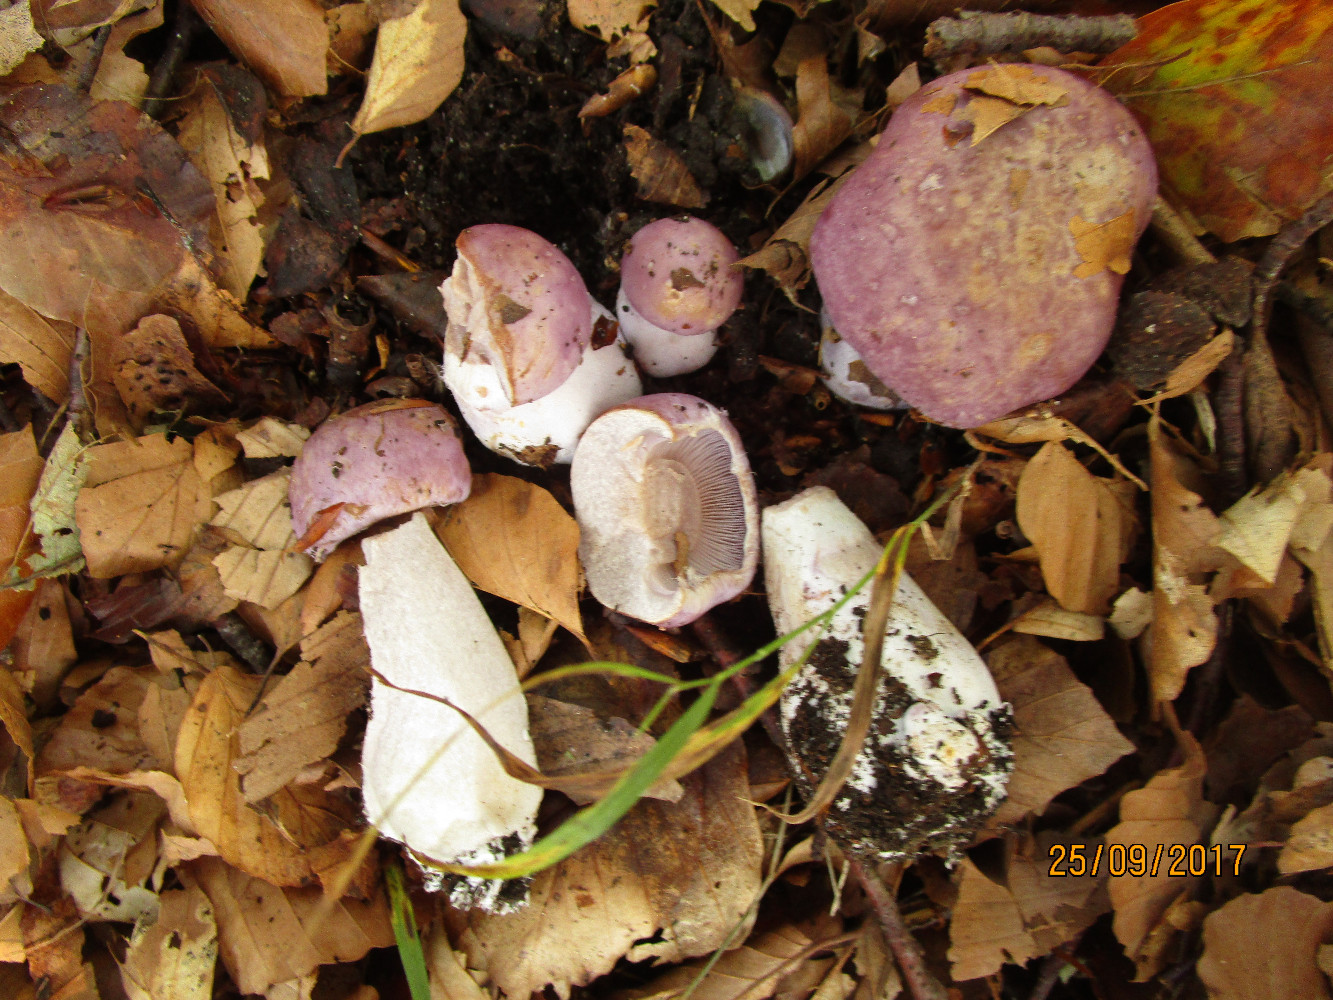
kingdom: Fungi
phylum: Basidiomycota
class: Agaricomycetes
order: Agaricales
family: Cortinariaceae
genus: Cortinarius
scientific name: Cortinarius variecolor
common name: violetagtig slørhat
